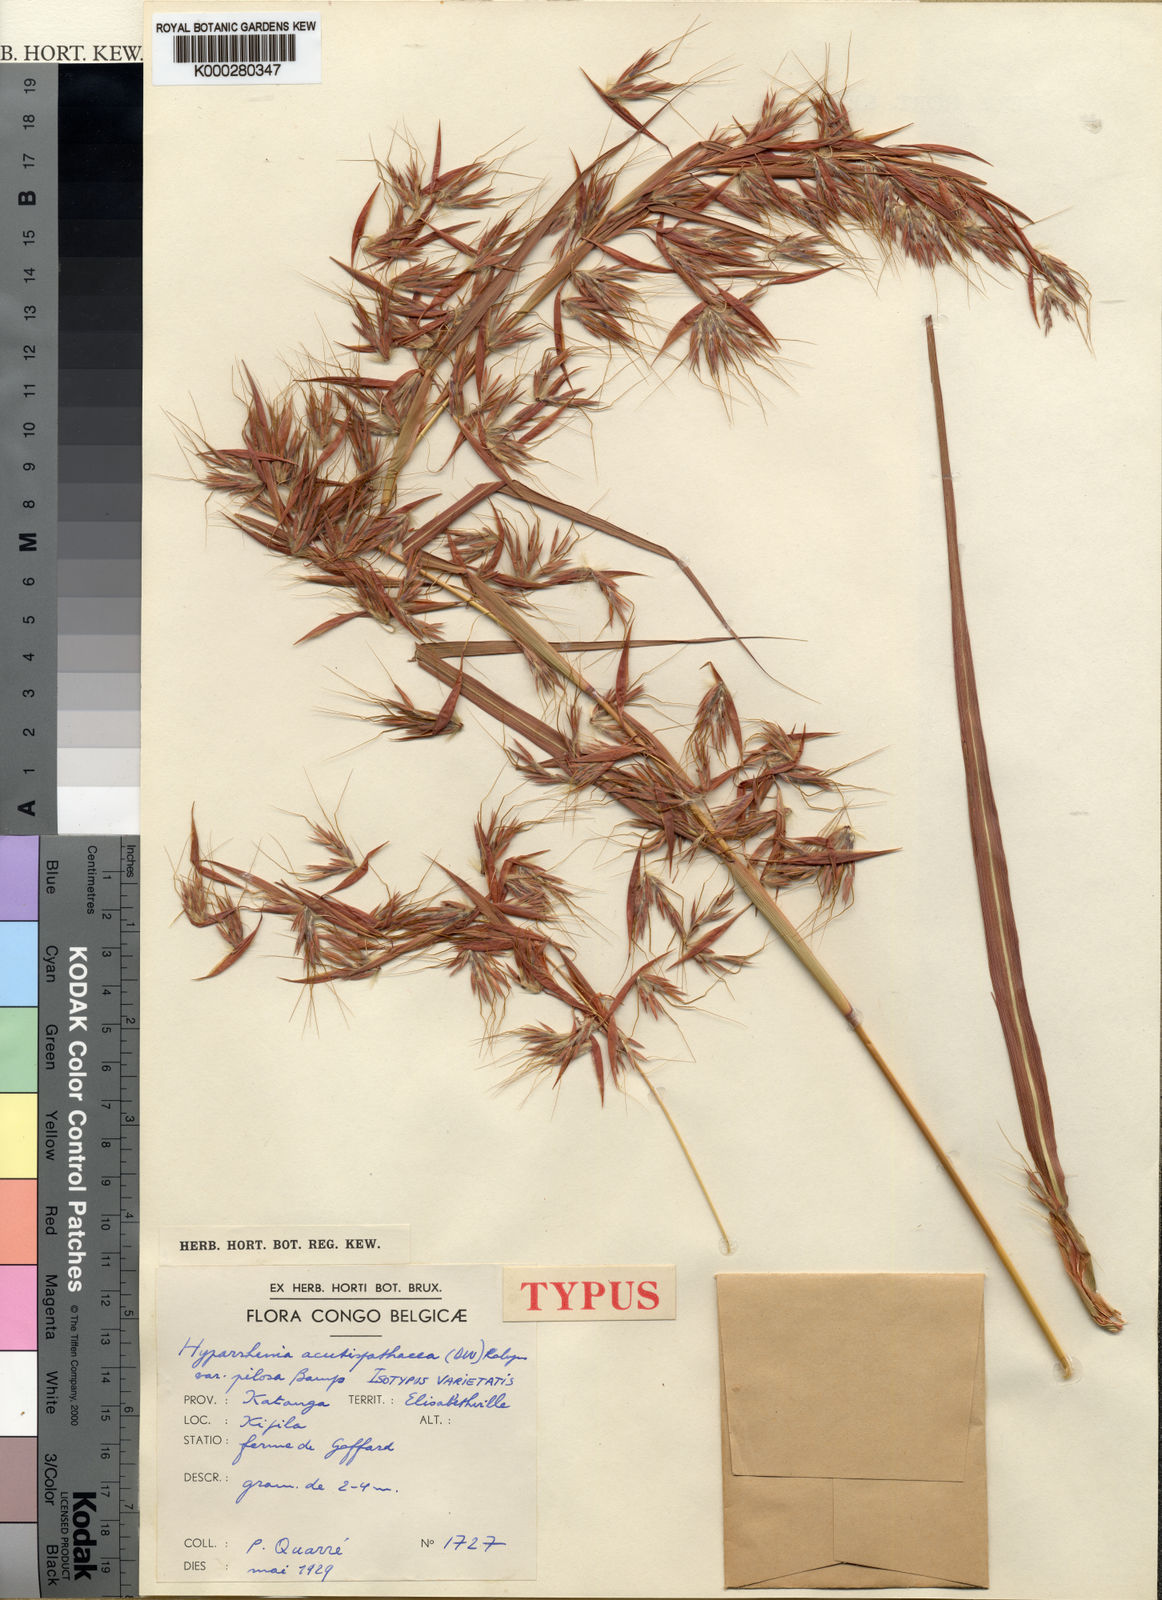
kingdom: Plantae
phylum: Tracheophyta
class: Liliopsida
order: Poales
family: Poaceae
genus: Hyparrhenia
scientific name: Hyparrhenia rudis
